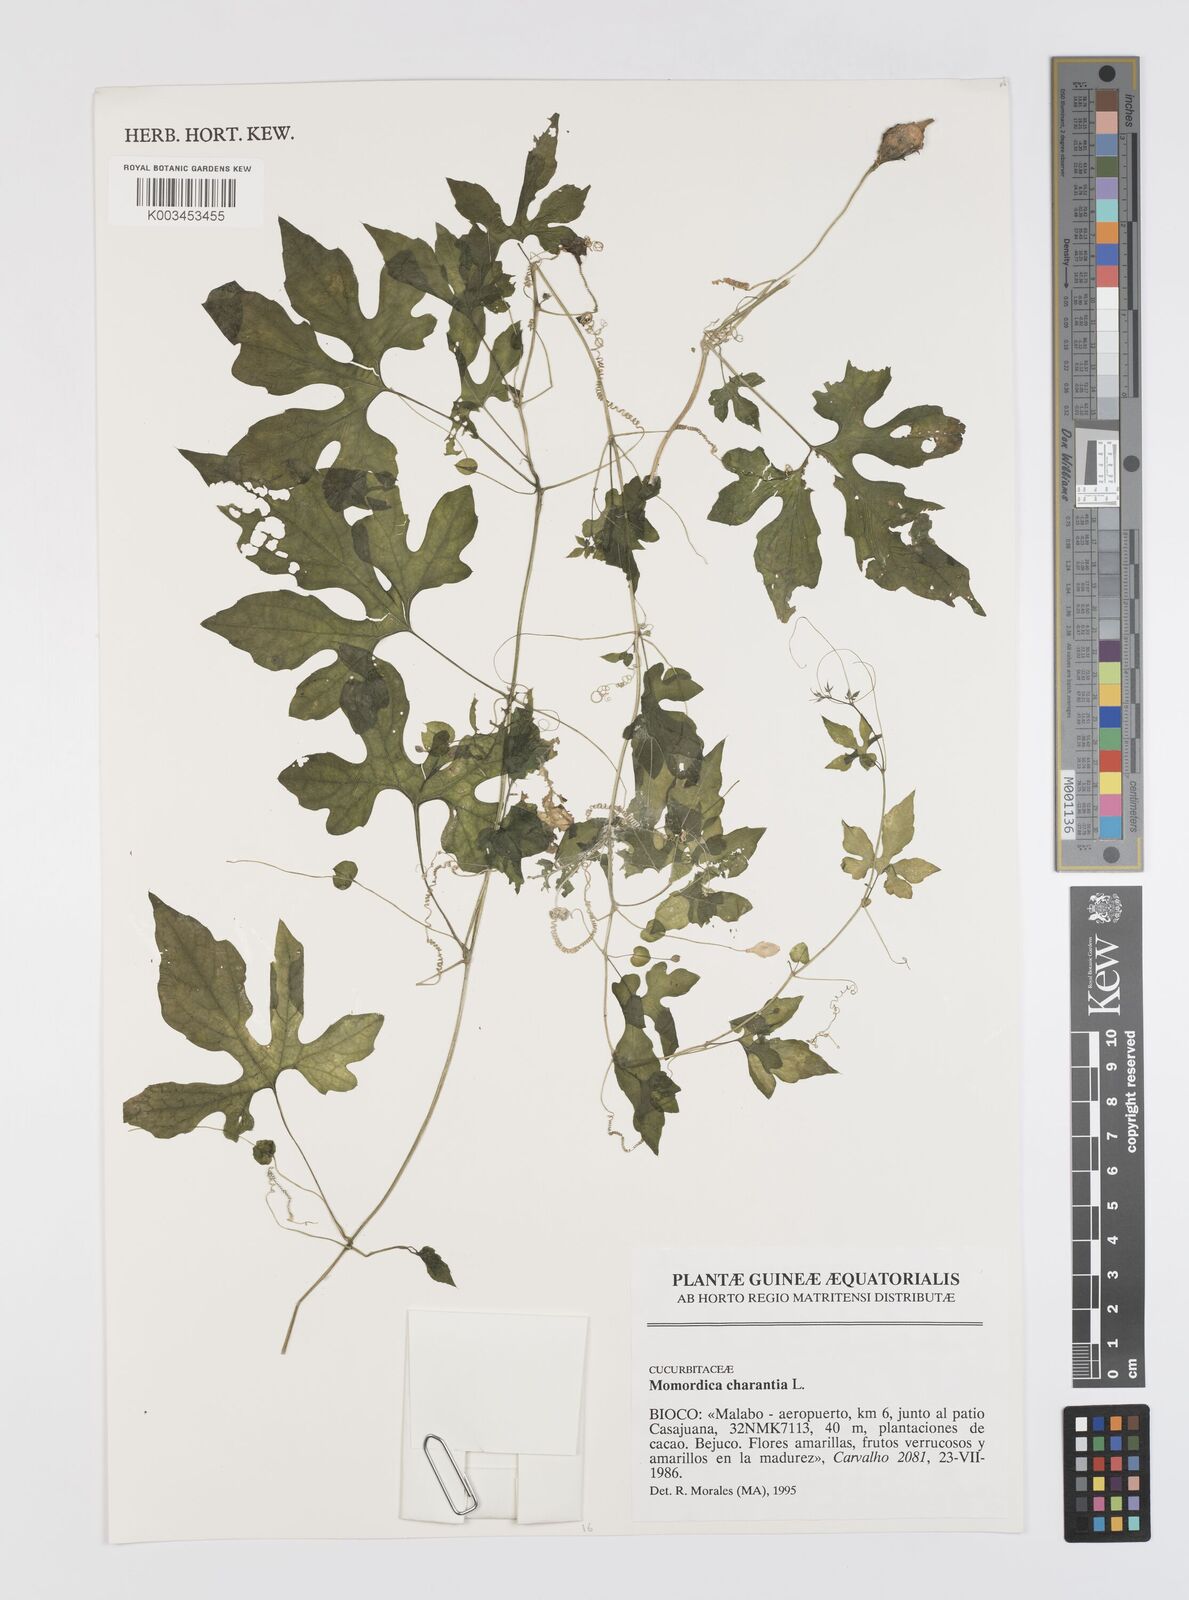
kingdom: Plantae
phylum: Tracheophyta
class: Magnoliopsida
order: Cucurbitales
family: Cucurbitaceae
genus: Momordica
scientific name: Momordica charantia
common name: Balsampear
